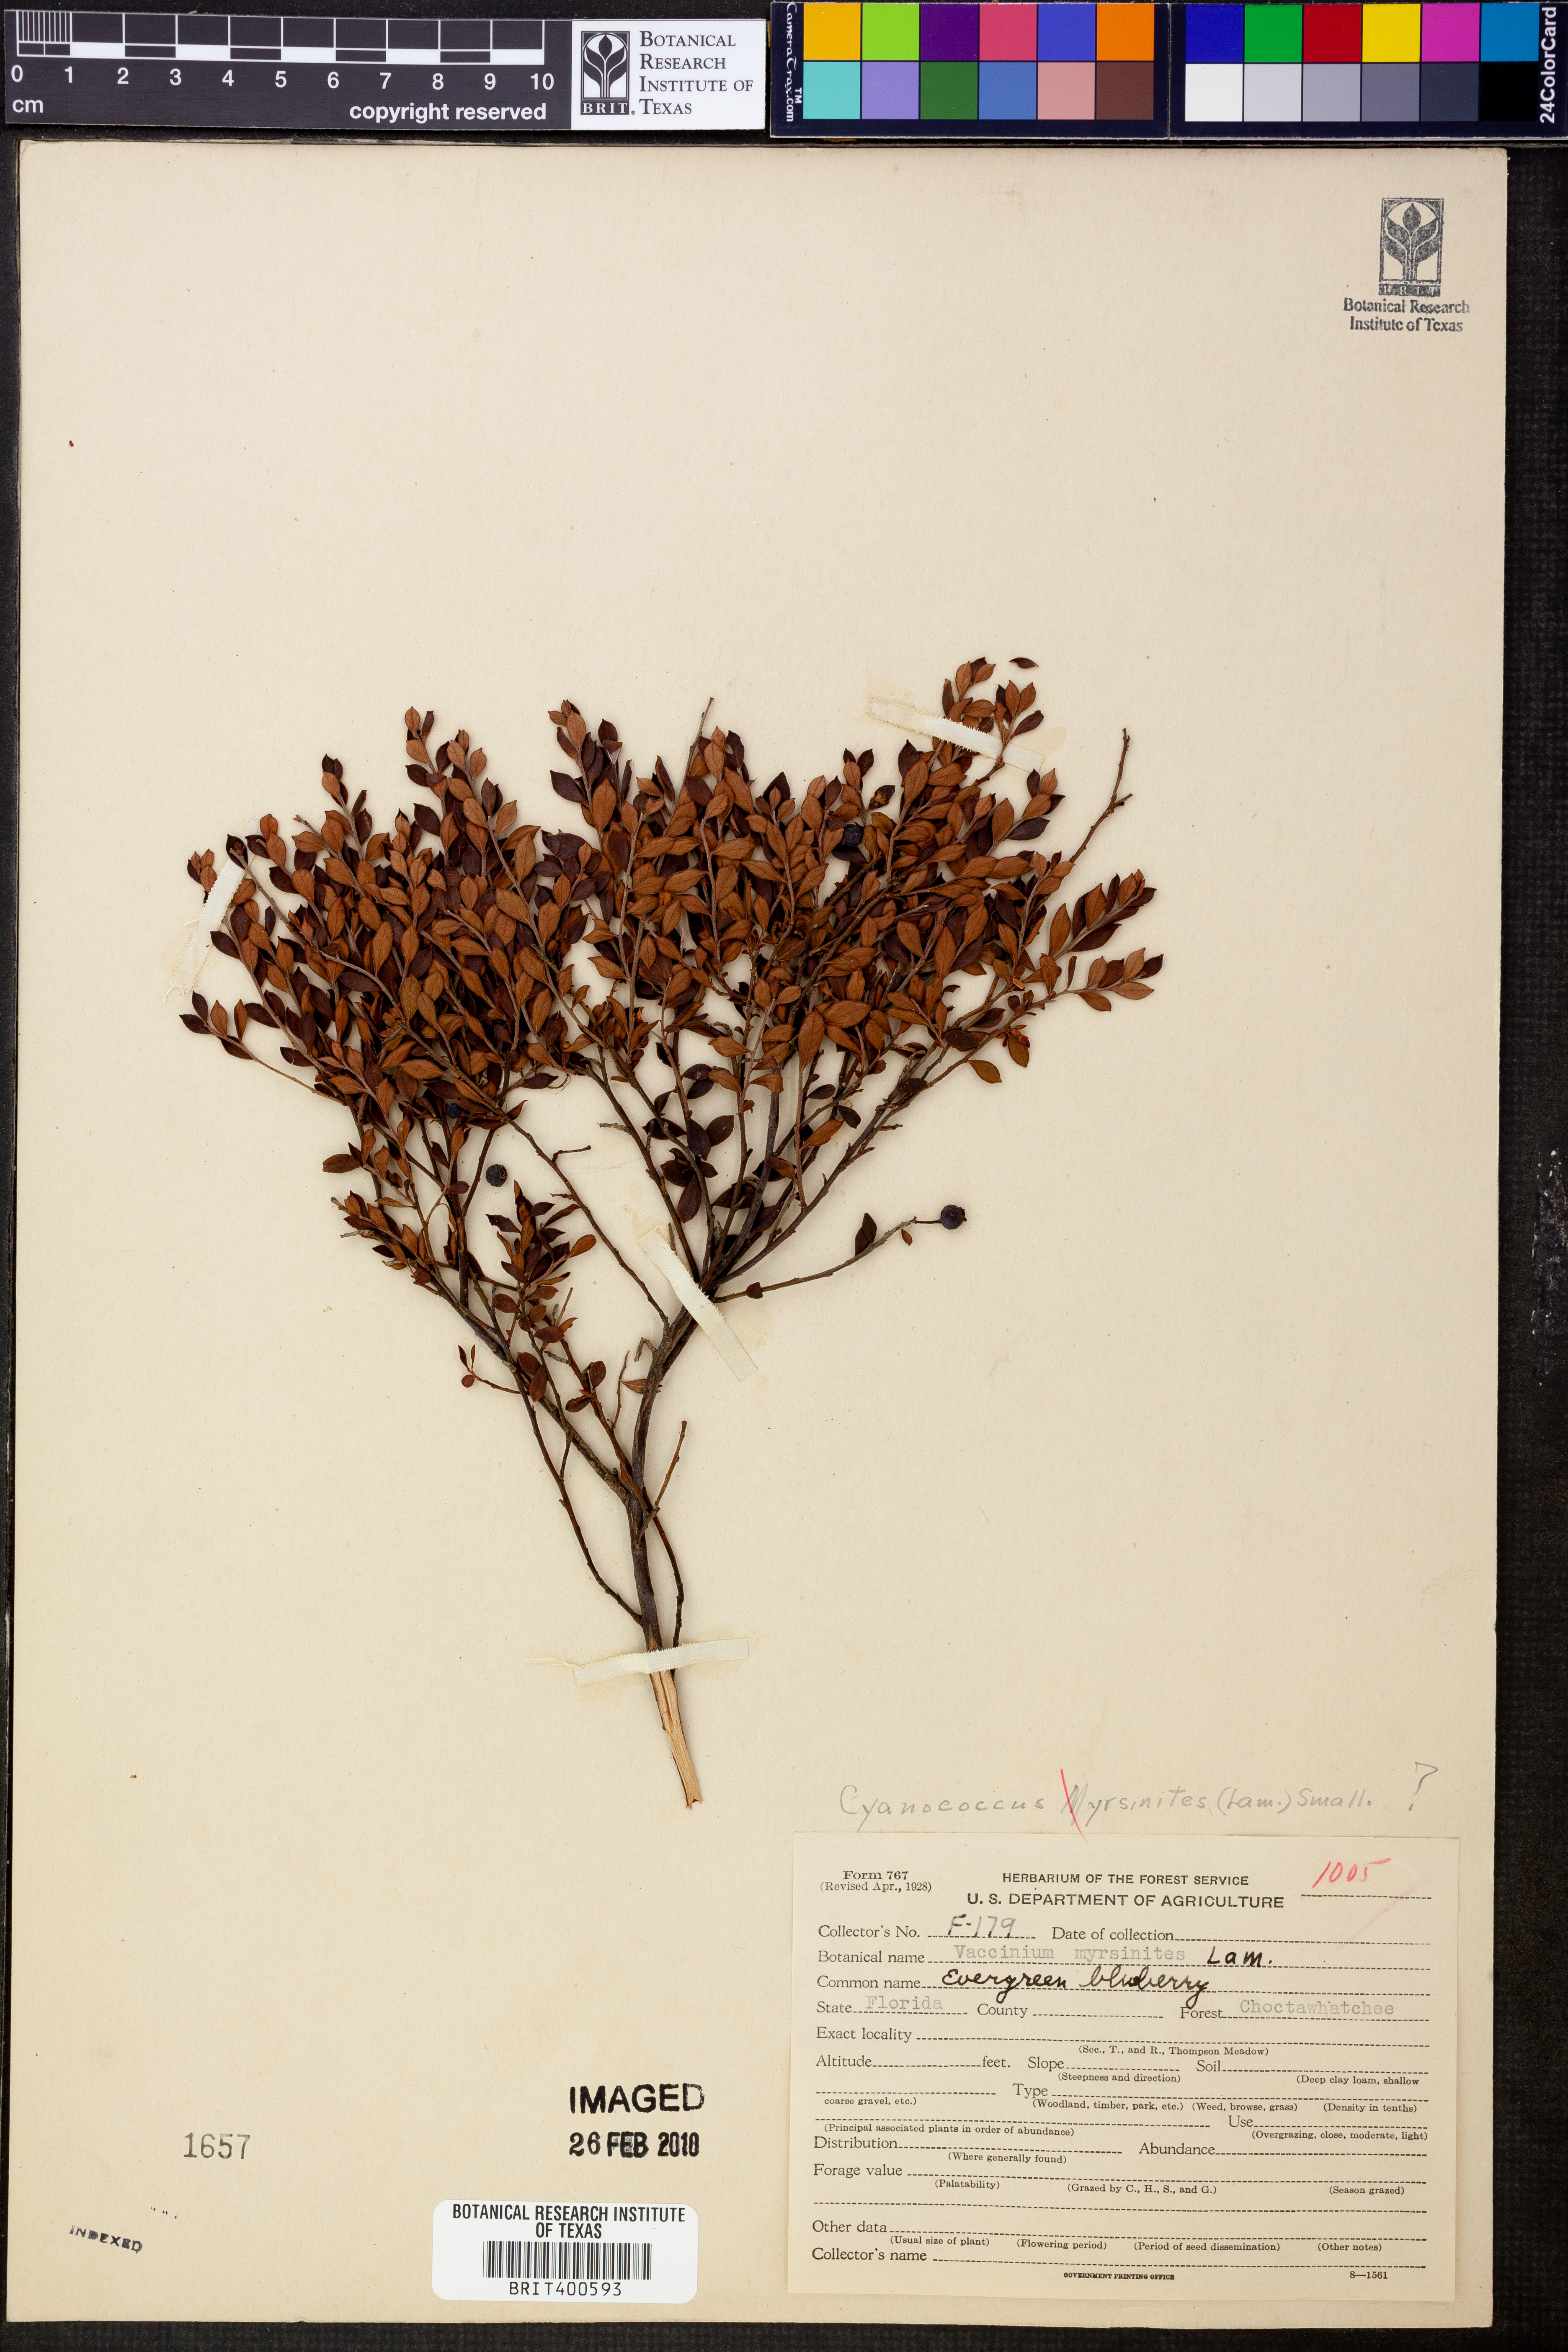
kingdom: Plantae
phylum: Tracheophyta
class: Magnoliopsida
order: Ericales
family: Ericaceae
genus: Vaccinium
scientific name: Vaccinium myrsinites
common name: Evergreen blueberry
